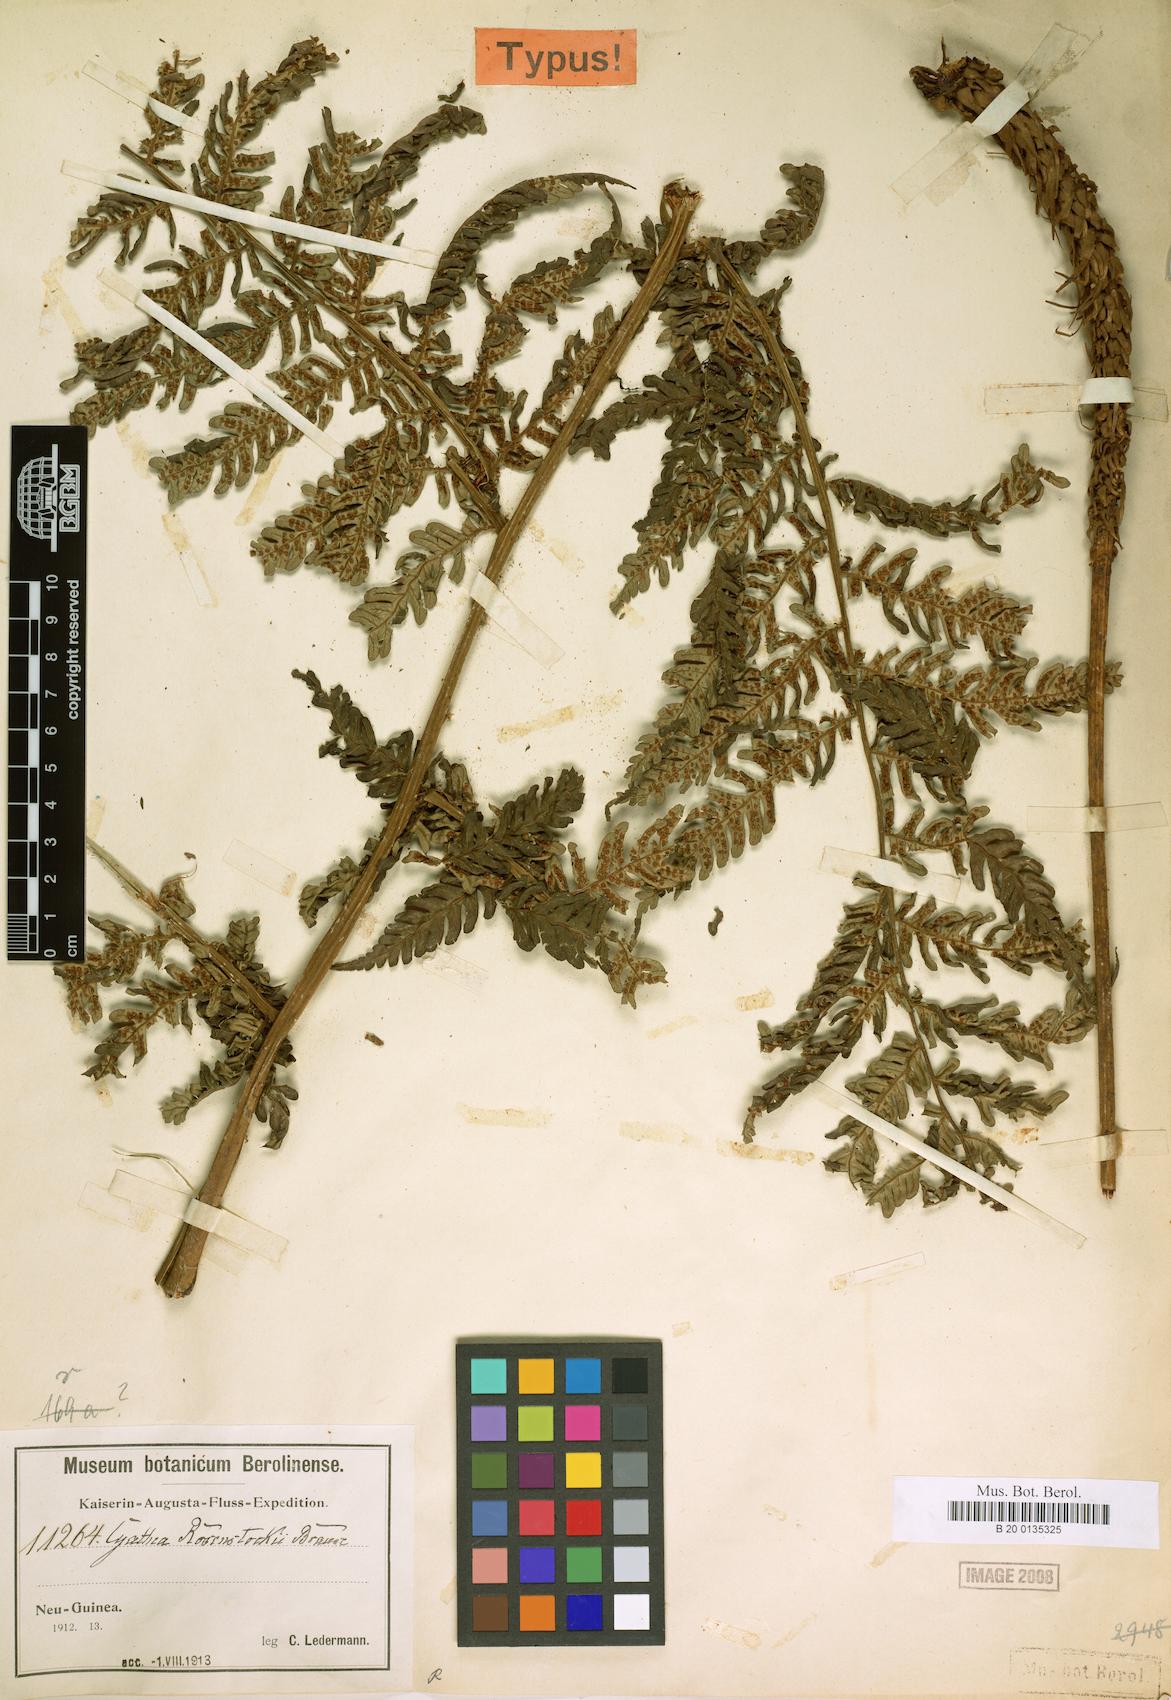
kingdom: Plantae
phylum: Tracheophyta
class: Polypodiopsida
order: Cyatheales
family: Cyatheaceae
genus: Sphaeropteris
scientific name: Sphaeropteris rosenstockii
